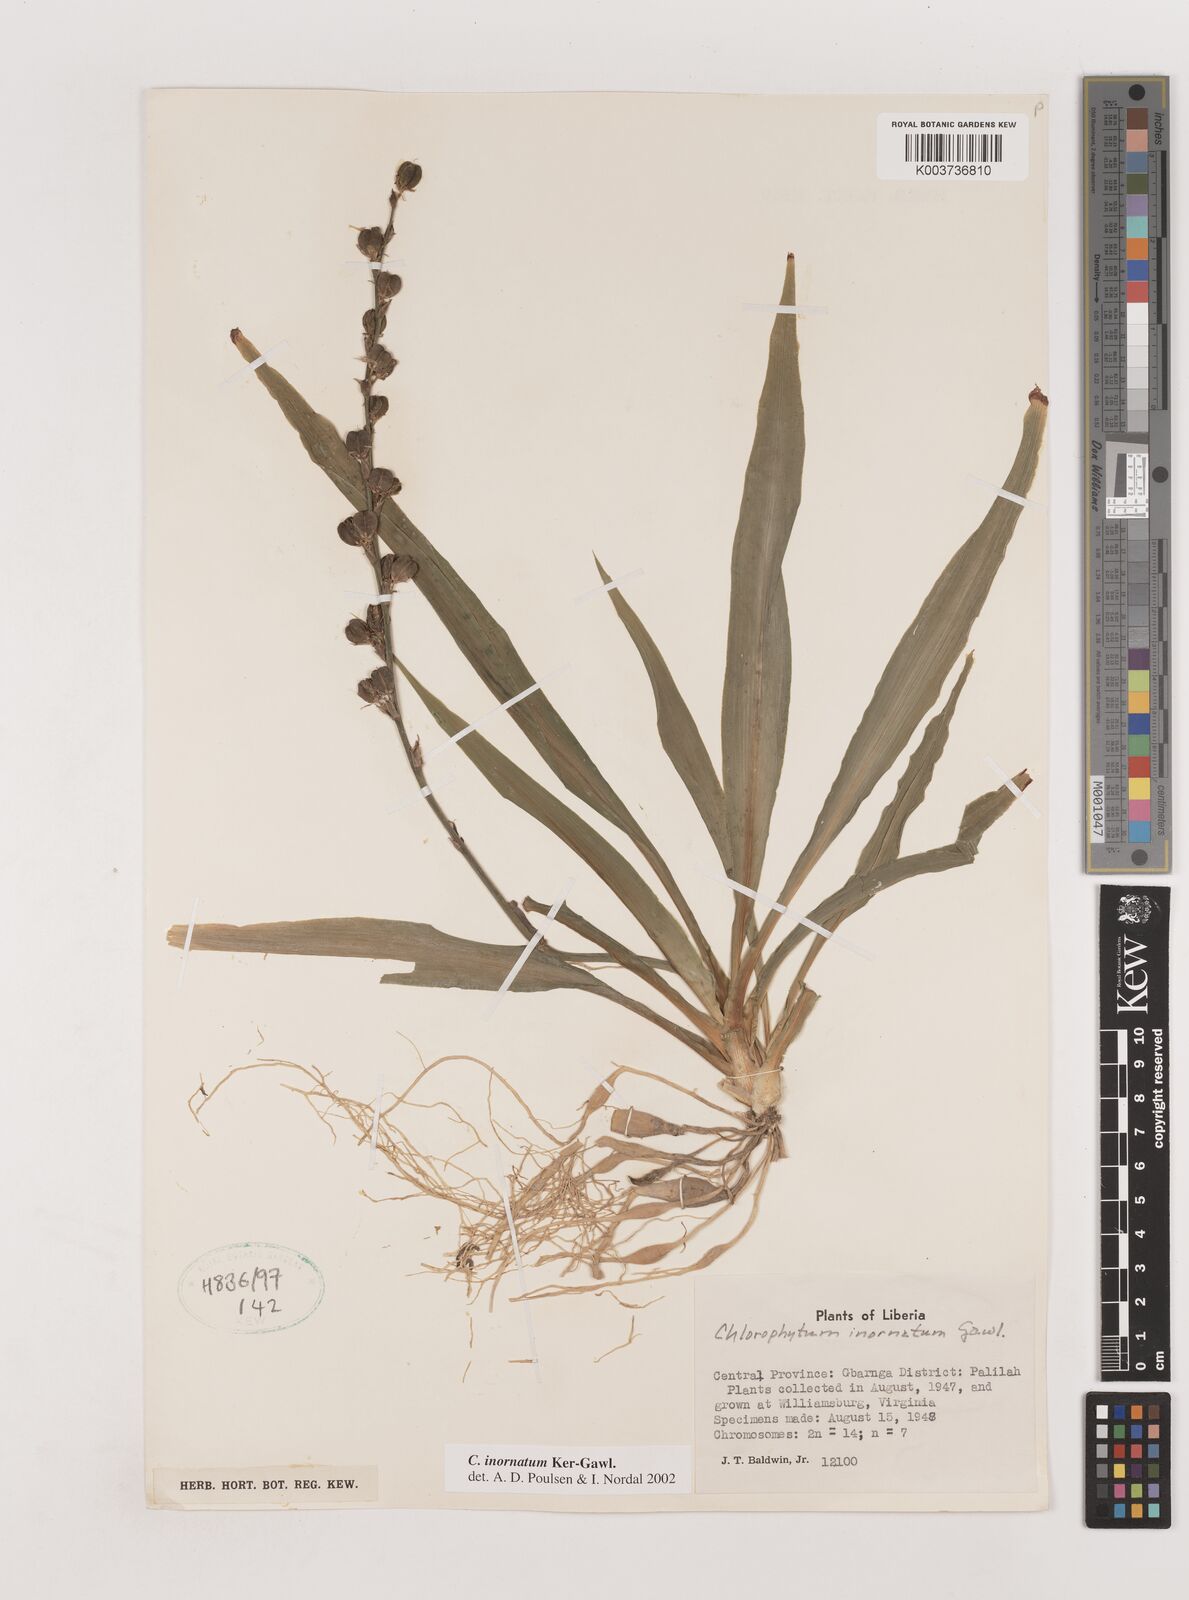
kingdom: Plantae
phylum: Tracheophyta
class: Liliopsida
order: Asparagales
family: Asparagaceae
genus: Chlorophytum
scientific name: Chlorophytum inornatum
